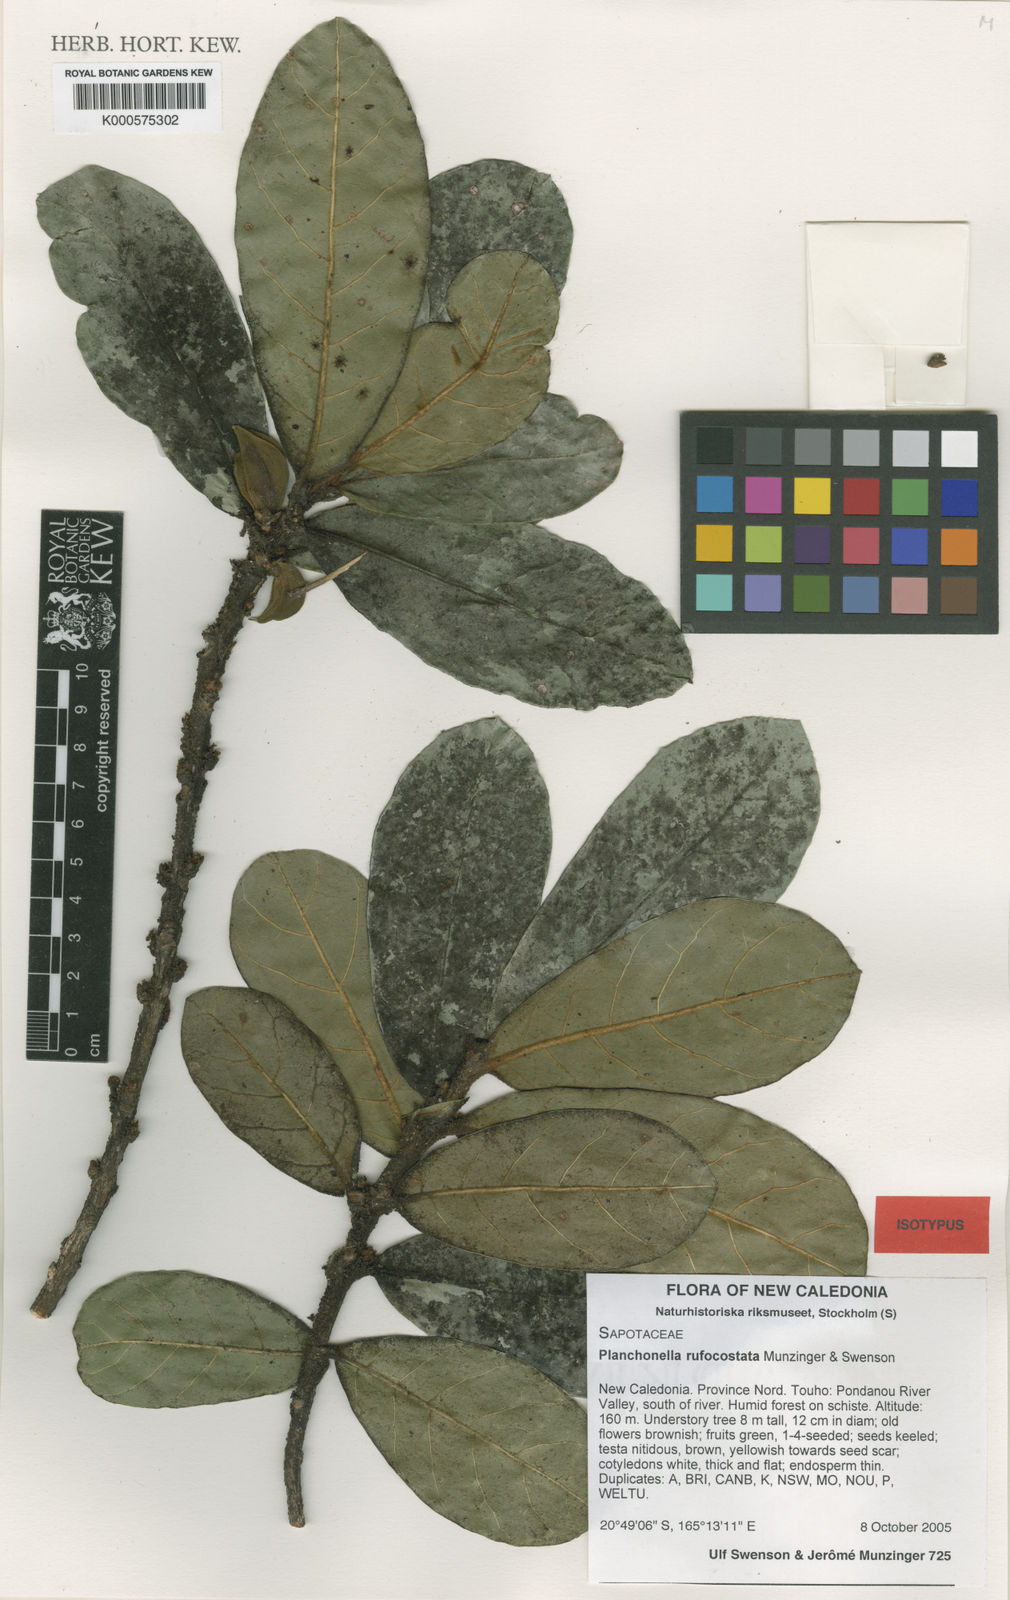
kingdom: Plantae
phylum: Tracheophyta
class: Magnoliopsida
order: Ericales
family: Sapotaceae
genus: Pouteria
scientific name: Pouteria
